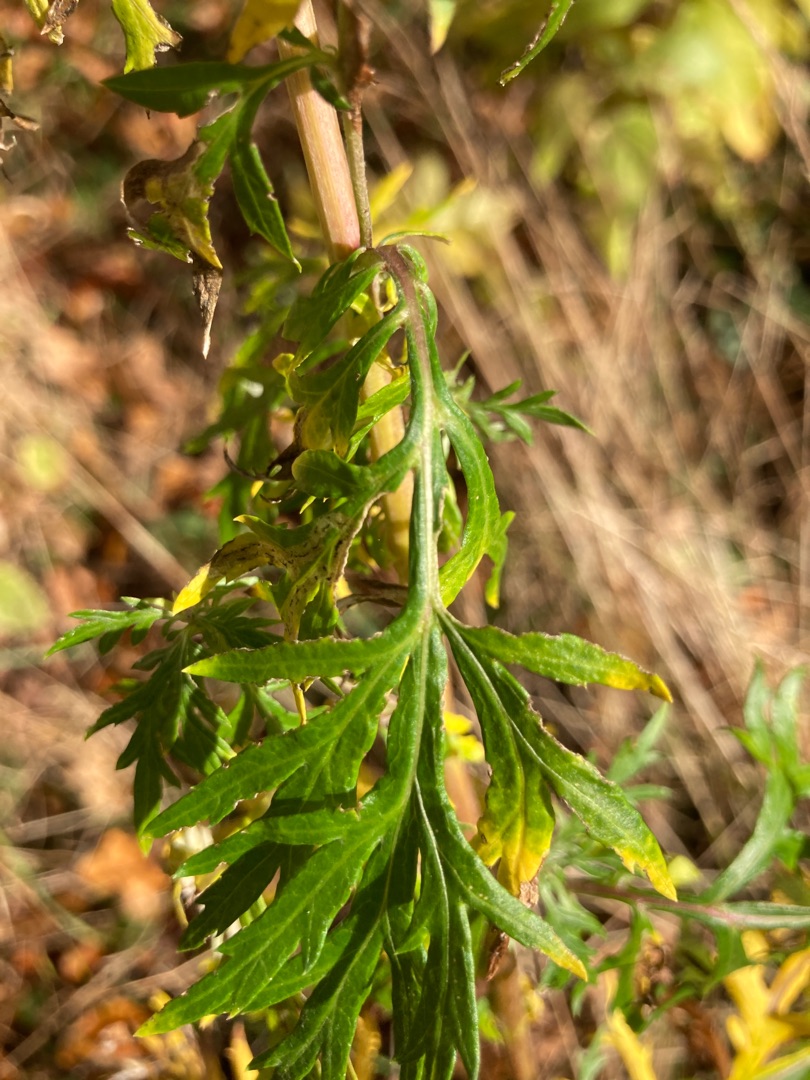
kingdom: Plantae
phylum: Tracheophyta
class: Magnoliopsida
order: Asterales
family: Asteraceae
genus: Artemisia
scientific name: Artemisia vulgaris
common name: Grå-bynke
